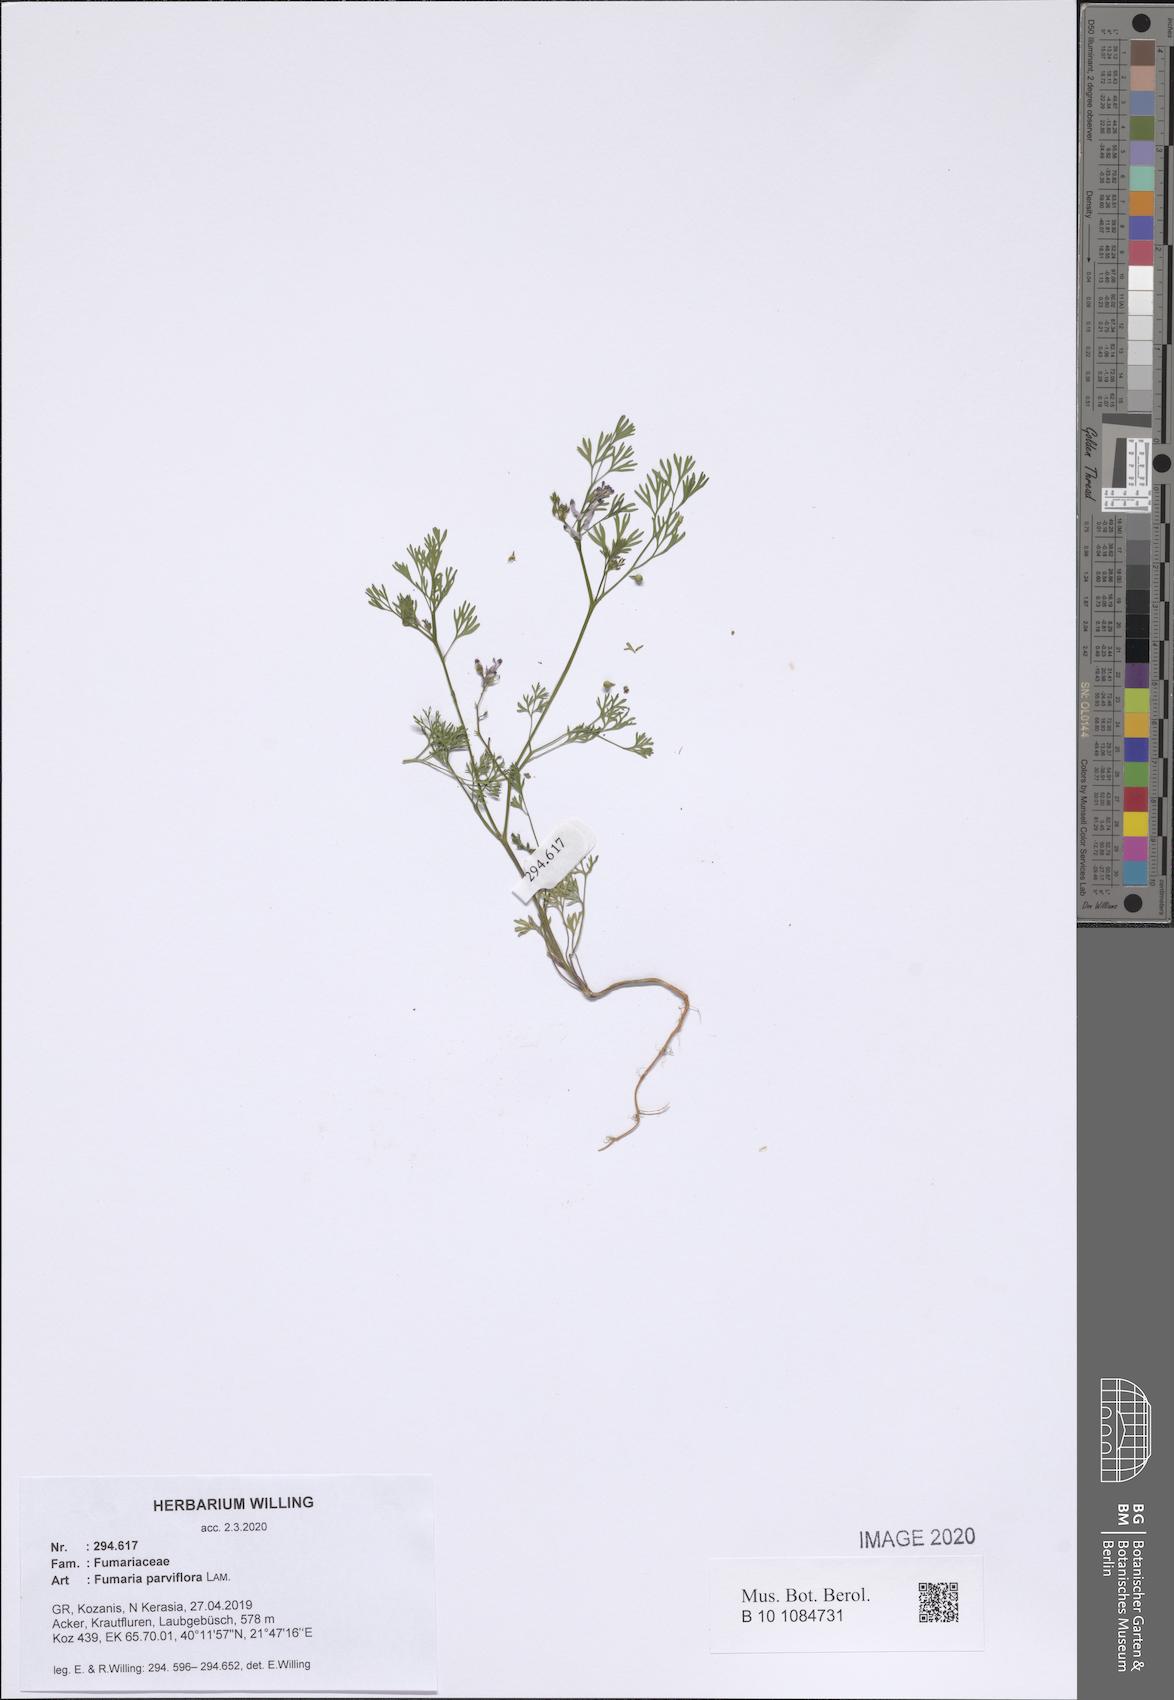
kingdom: Plantae
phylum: Tracheophyta
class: Magnoliopsida
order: Ranunculales
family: Papaveraceae
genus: Fumaria
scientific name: Fumaria parviflora
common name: Fine-leaved fumitory
